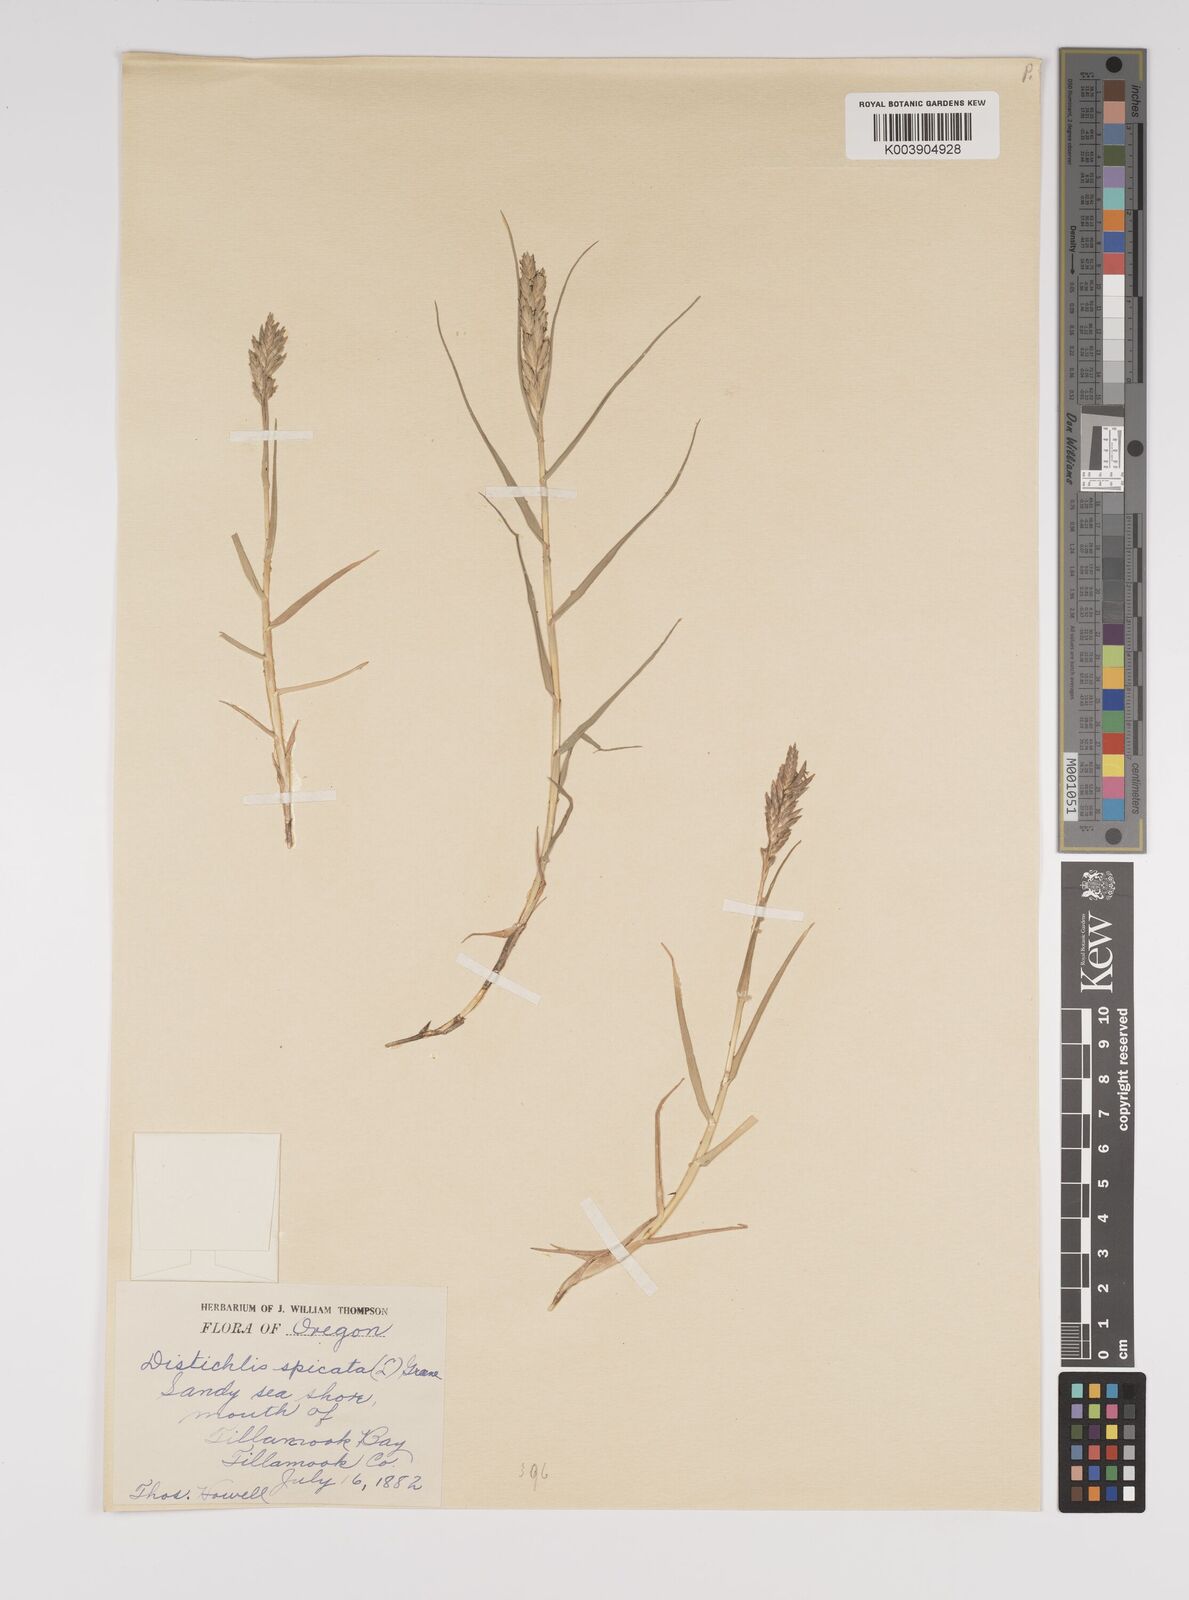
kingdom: Plantae
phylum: Tracheophyta
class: Liliopsida
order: Poales
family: Poaceae
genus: Distichlis
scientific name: Distichlis spicata
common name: Saltgrass
